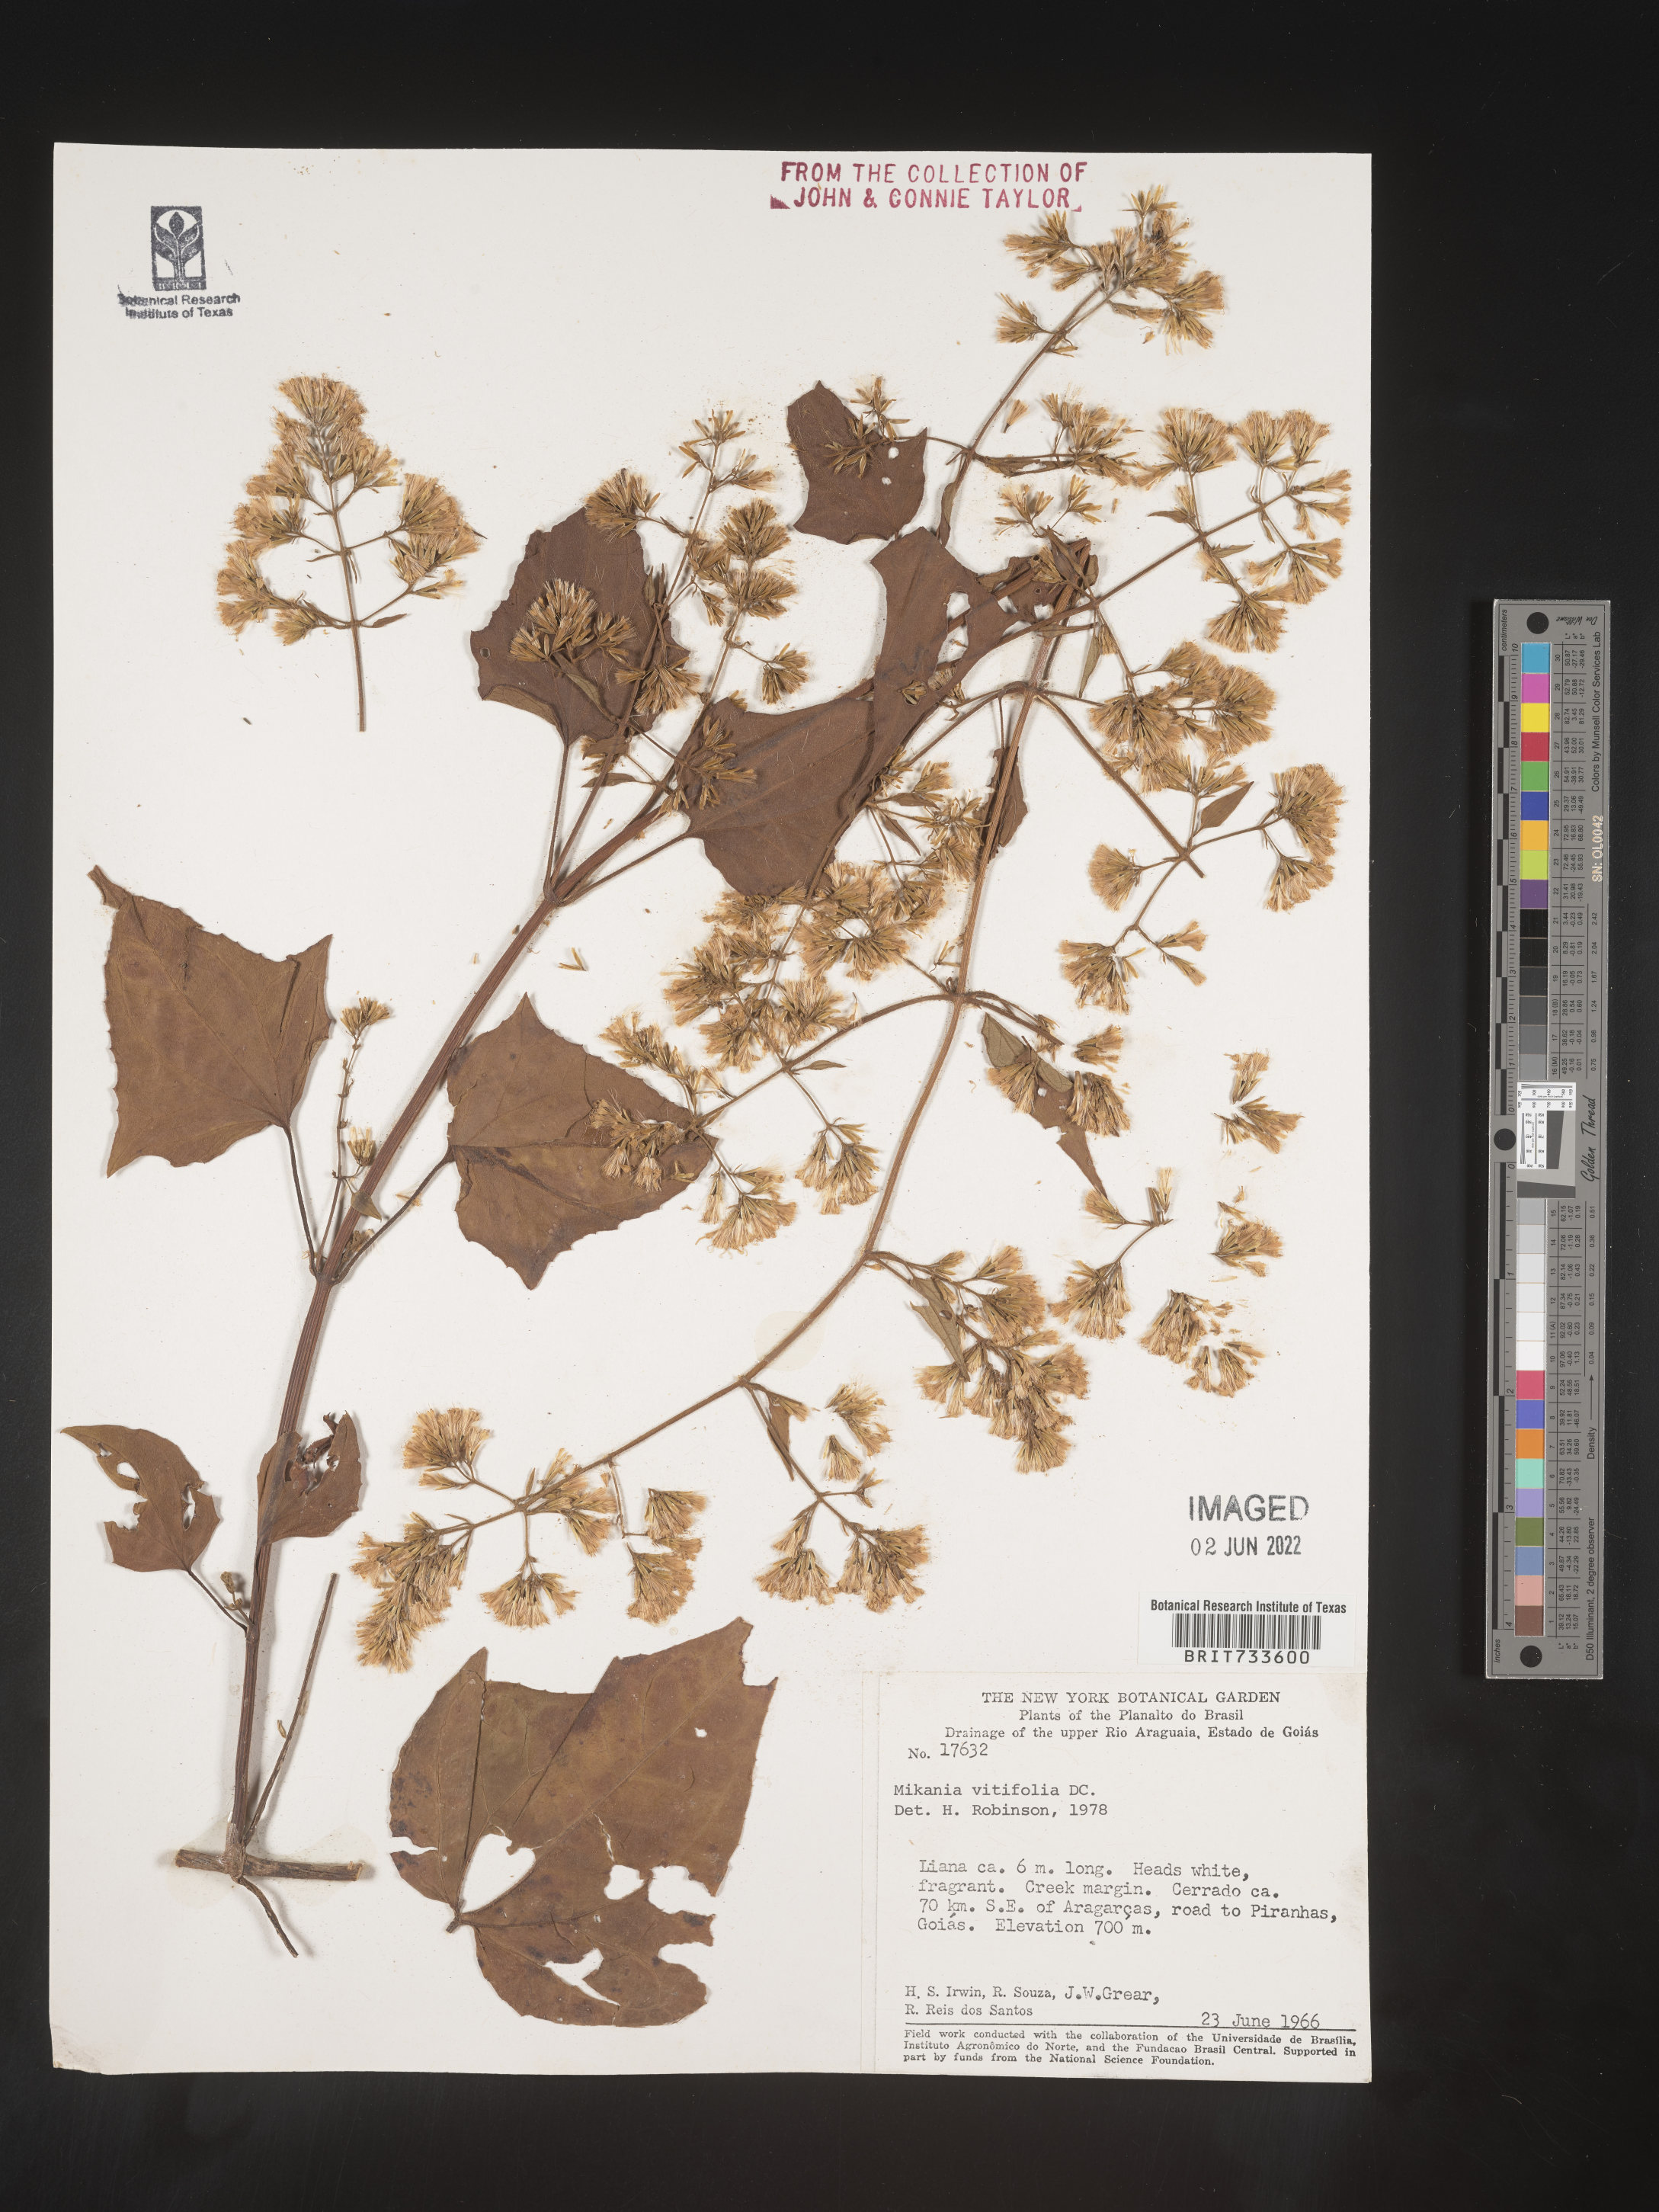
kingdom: Plantae
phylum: Tracheophyta
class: Magnoliopsida
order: Asterales
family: Asteraceae
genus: Mikania
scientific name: Mikania
